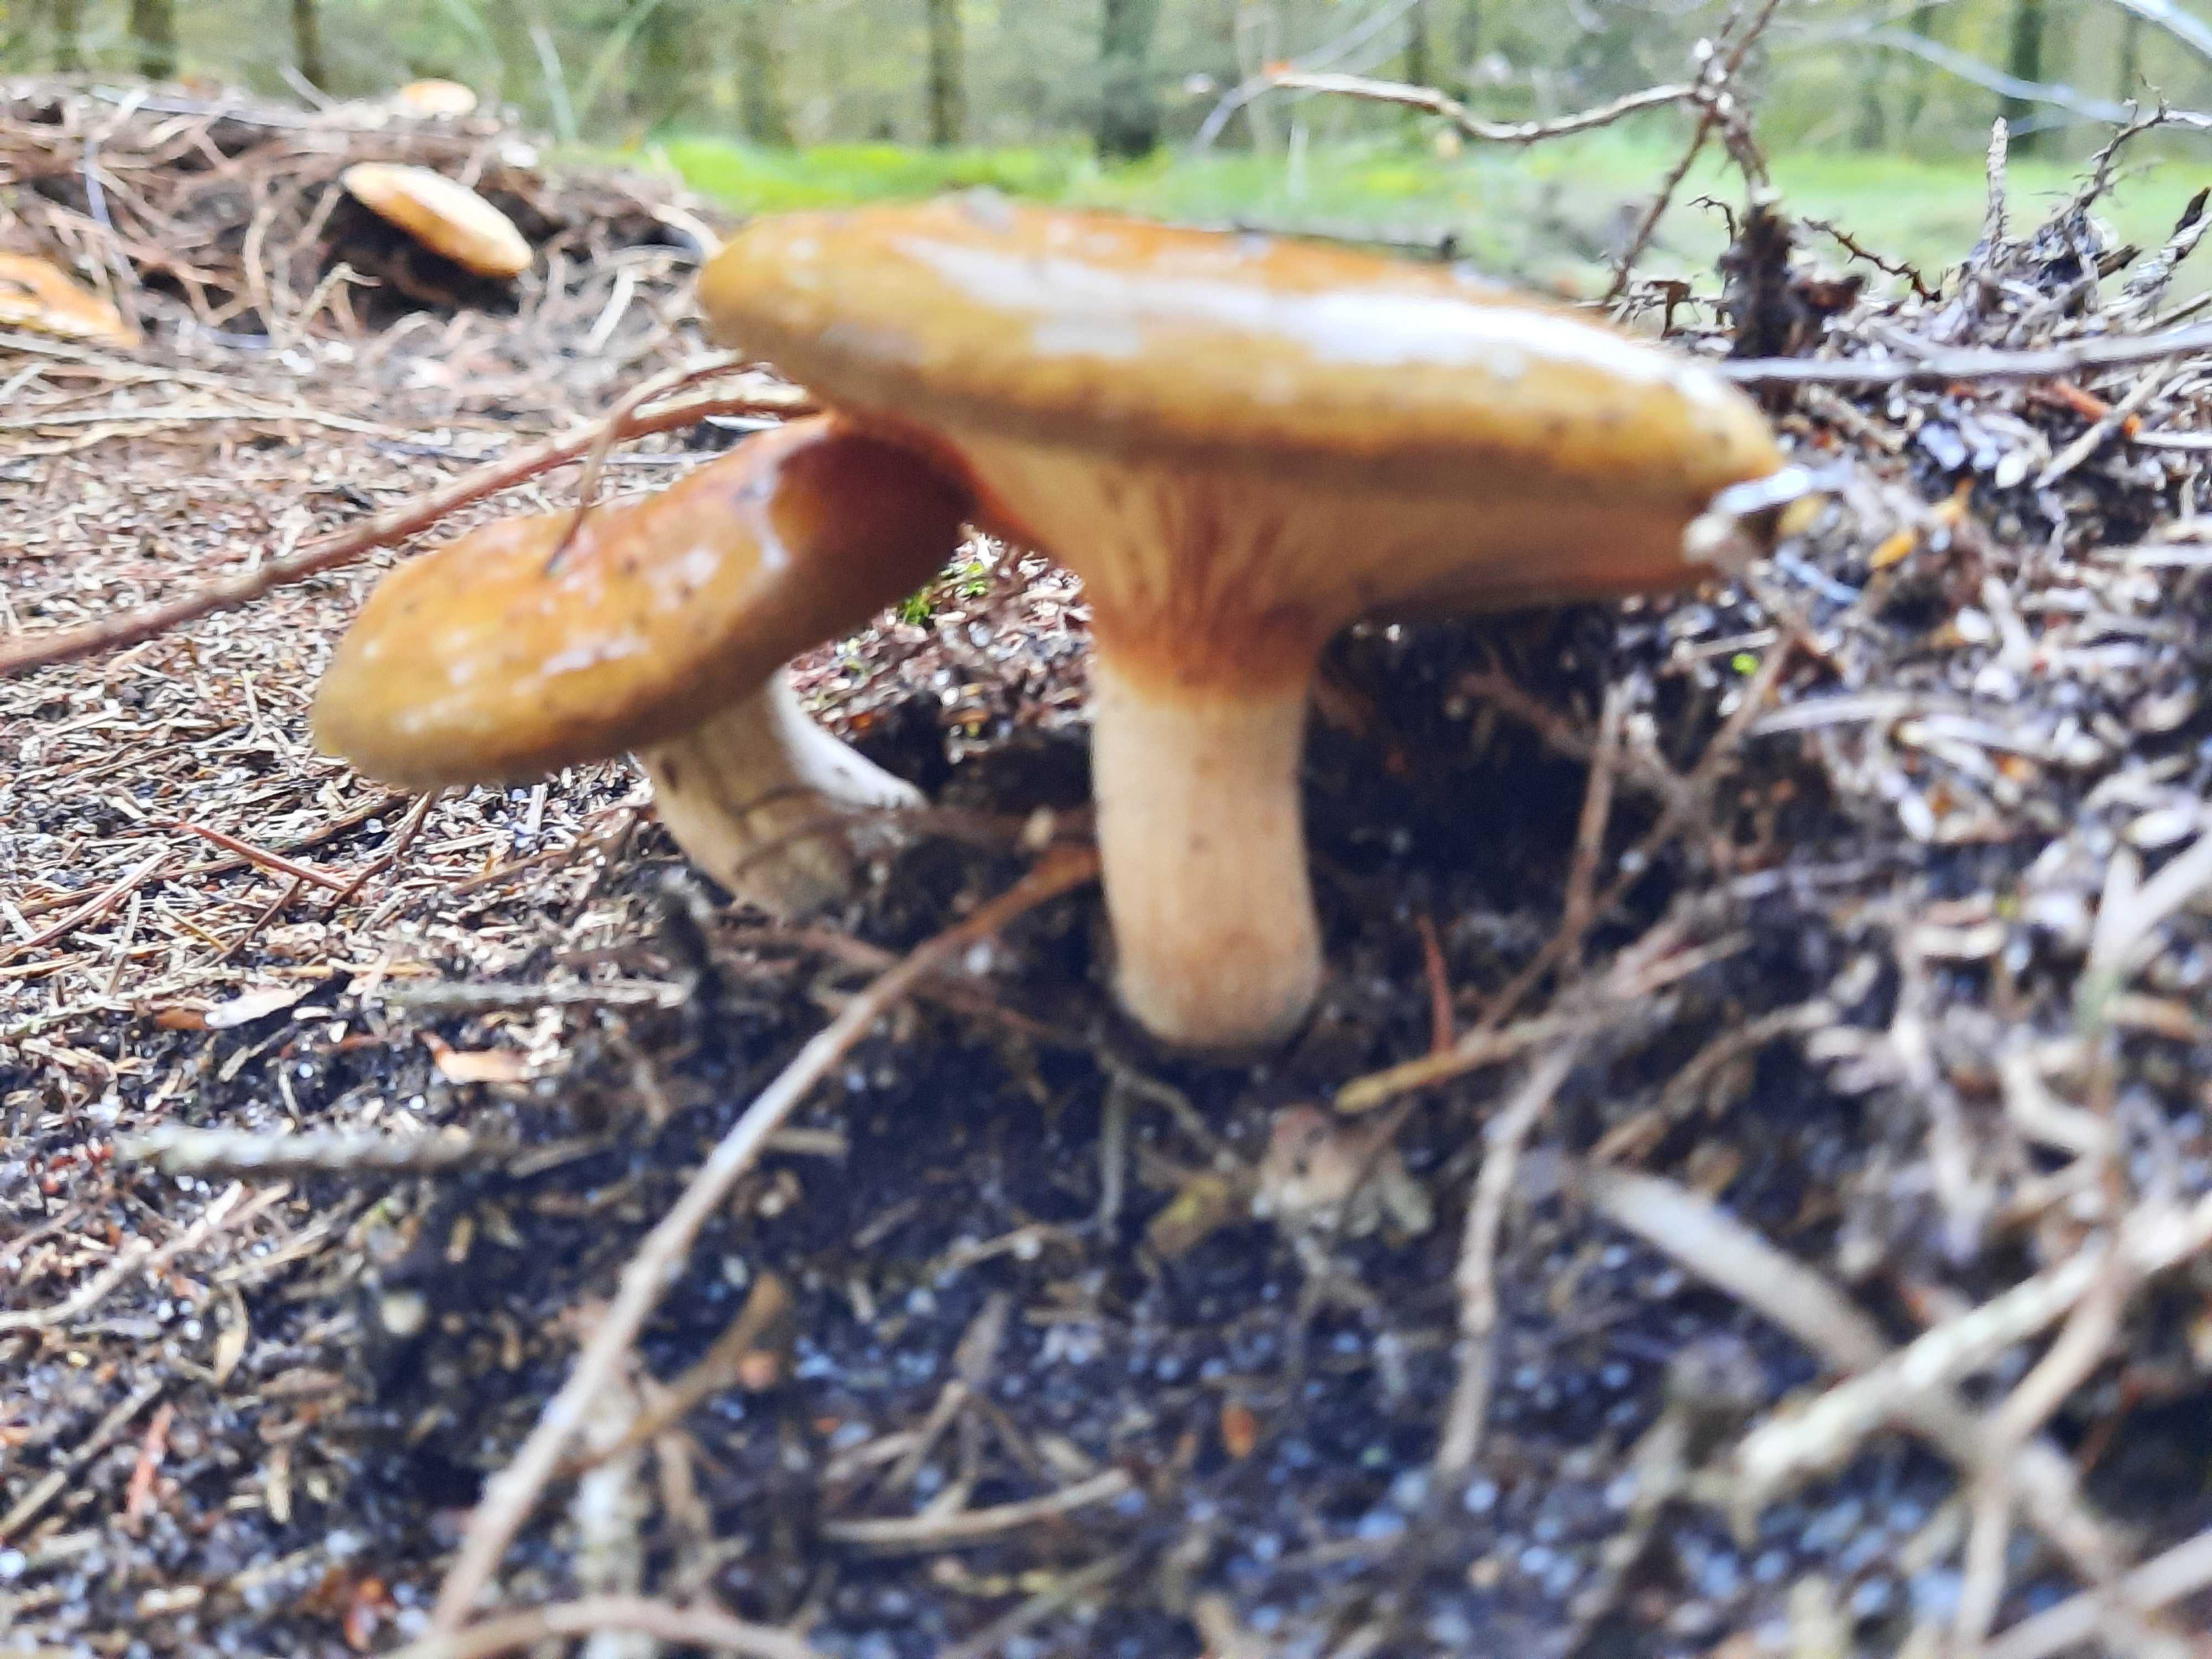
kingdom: Fungi
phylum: Basidiomycota
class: Agaricomycetes
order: Boletales
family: Paxillaceae
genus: Paxillus
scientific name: Paxillus involutus
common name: almindelig netbladhat
